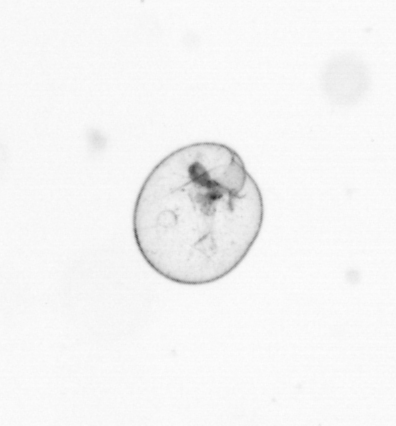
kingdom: Chromista
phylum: Myzozoa
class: Dinophyceae
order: Noctilucales
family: Noctilucaceae
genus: Noctiluca
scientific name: Noctiluca scintillans
